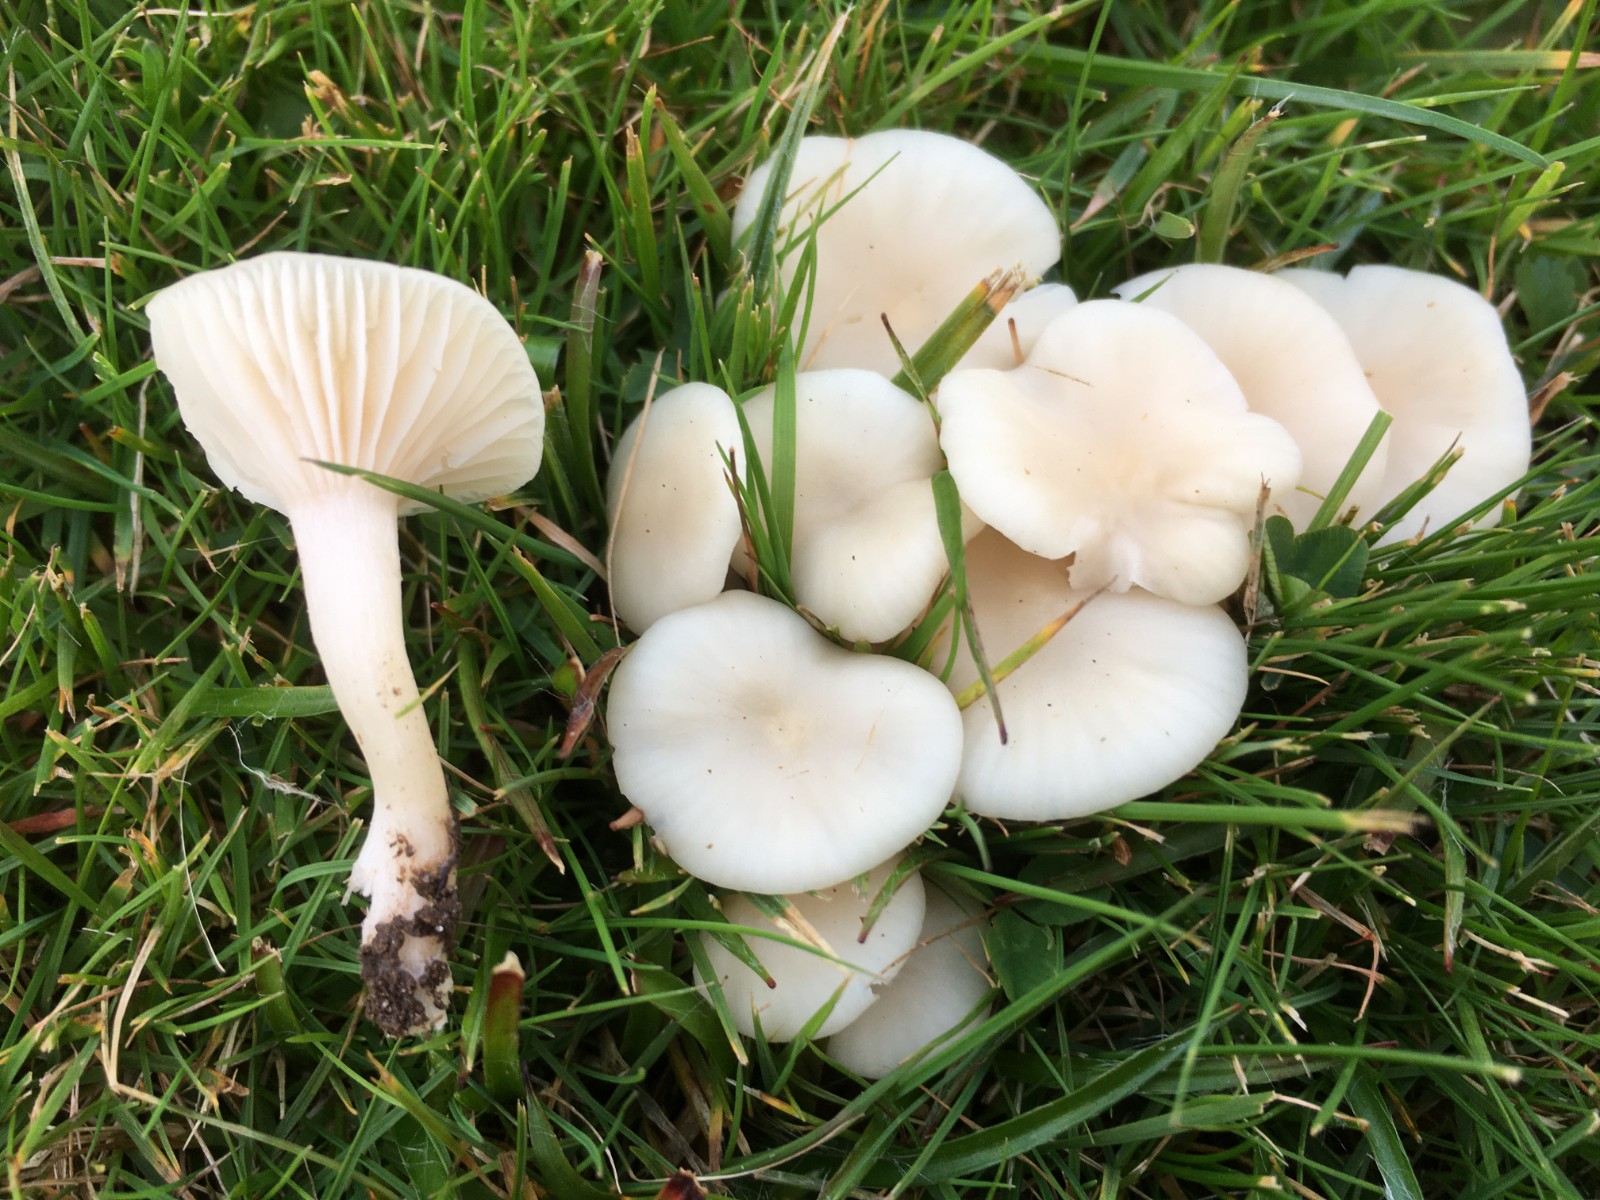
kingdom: Fungi
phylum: Basidiomycota
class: Agaricomycetes
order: Agaricales
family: Hygrophoraceae
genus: Cuphophyllus
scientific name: Cuphophyllus virgineus
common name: snehvid vokshat
